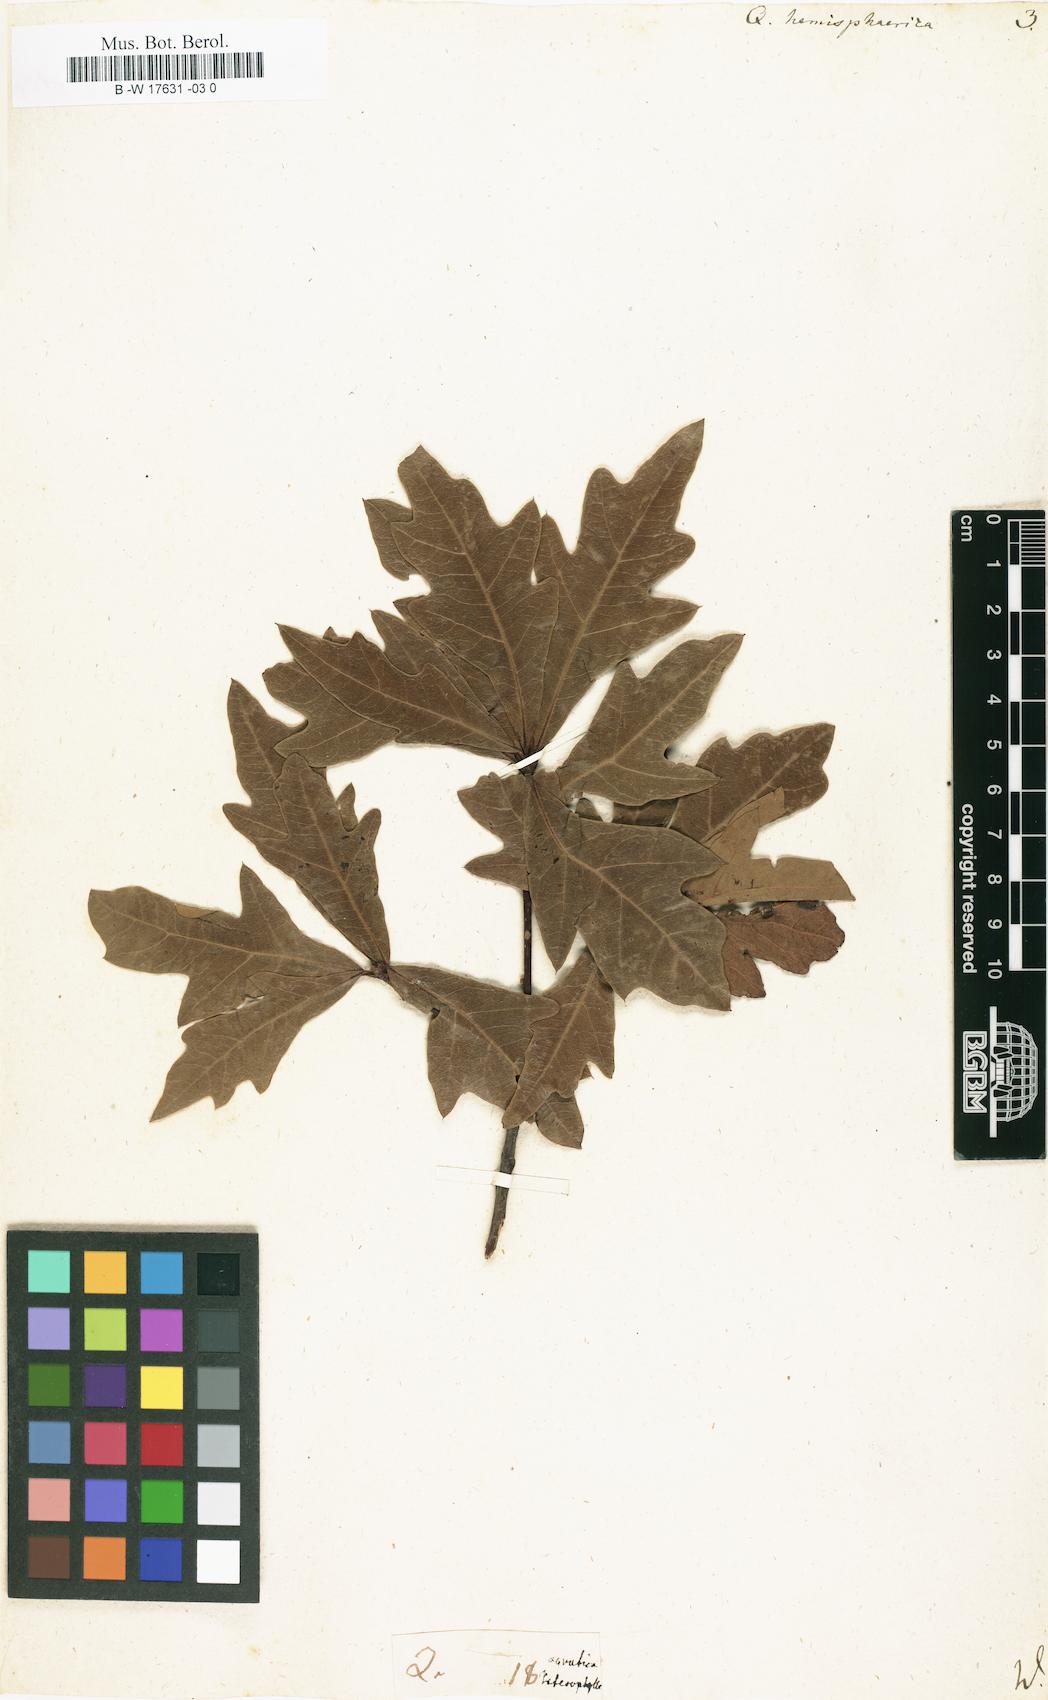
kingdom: Plantae
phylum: Tracheophyta
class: Magnoliopsida
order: Fagales
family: Fagaceae
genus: Quercus
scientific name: Quercus hemisphaerica
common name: Darlington oak
